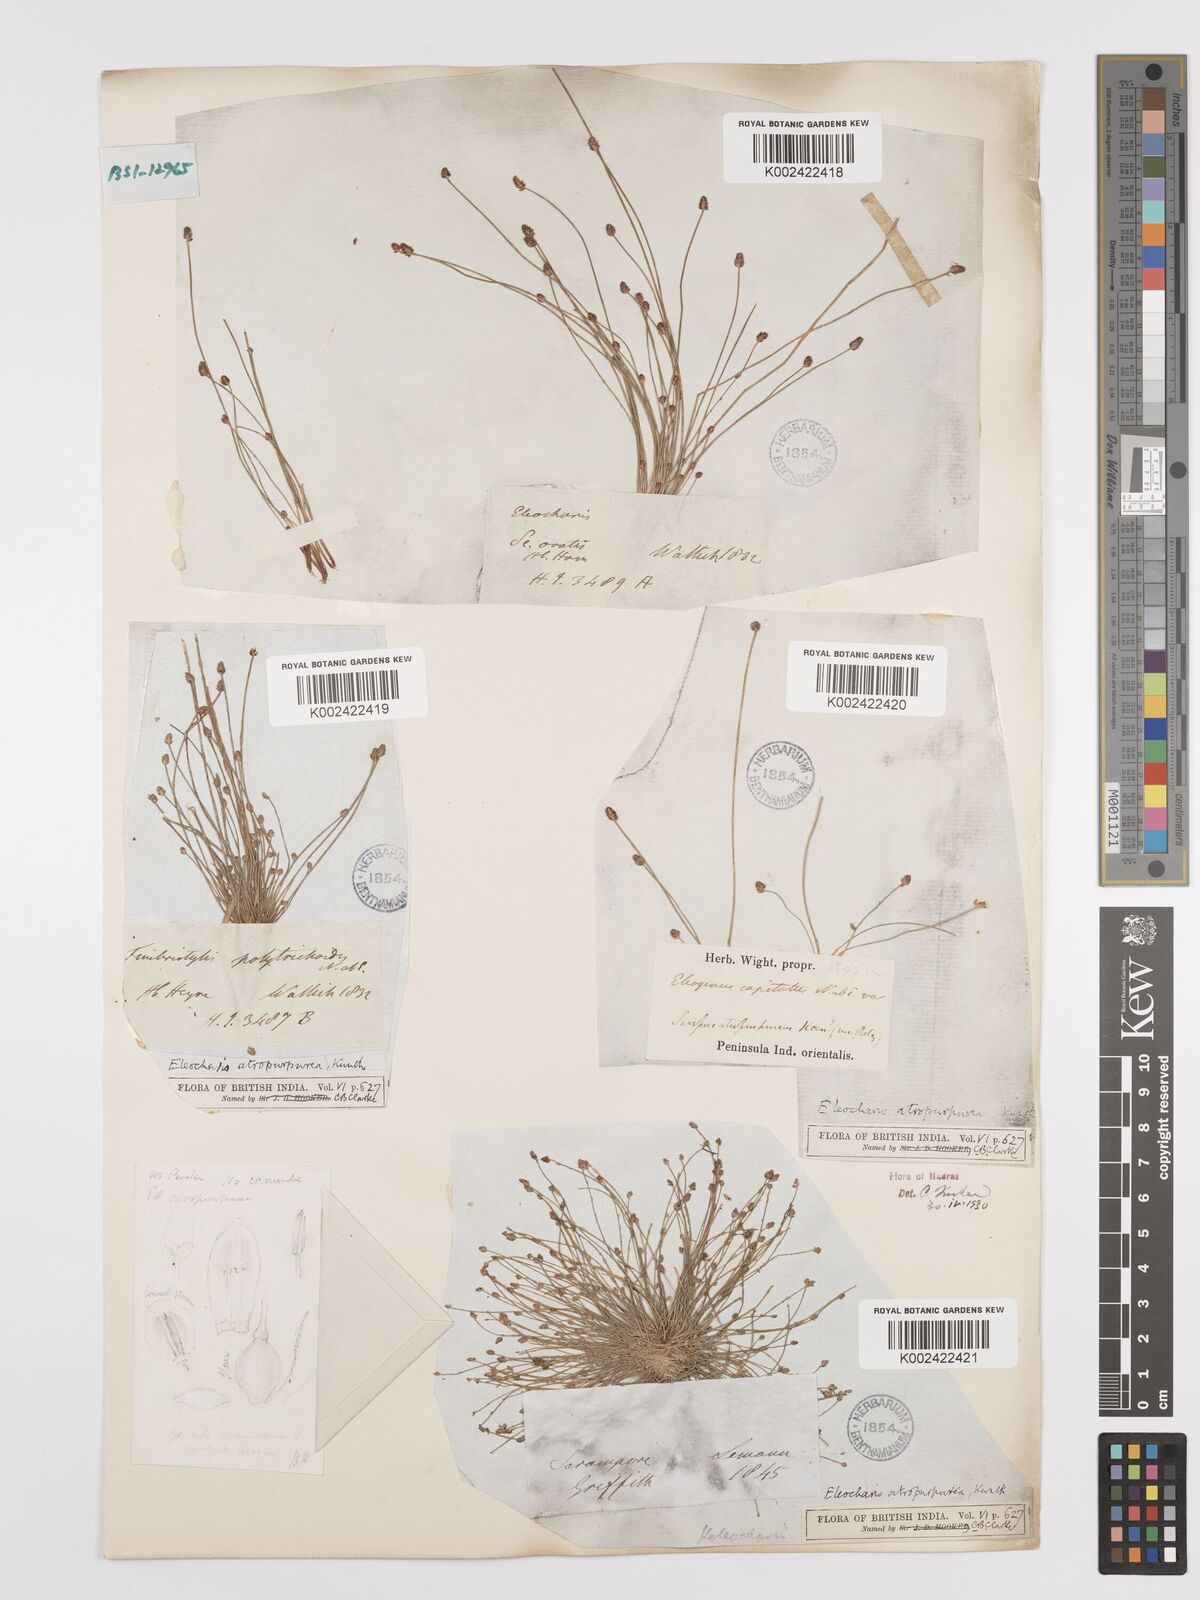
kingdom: Plantae
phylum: Tracheophyta
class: Liliopsida
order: Poales
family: Cyperaceae
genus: Eleocharis
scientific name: Eleocharis atropurpurea
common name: Purple spikerush
